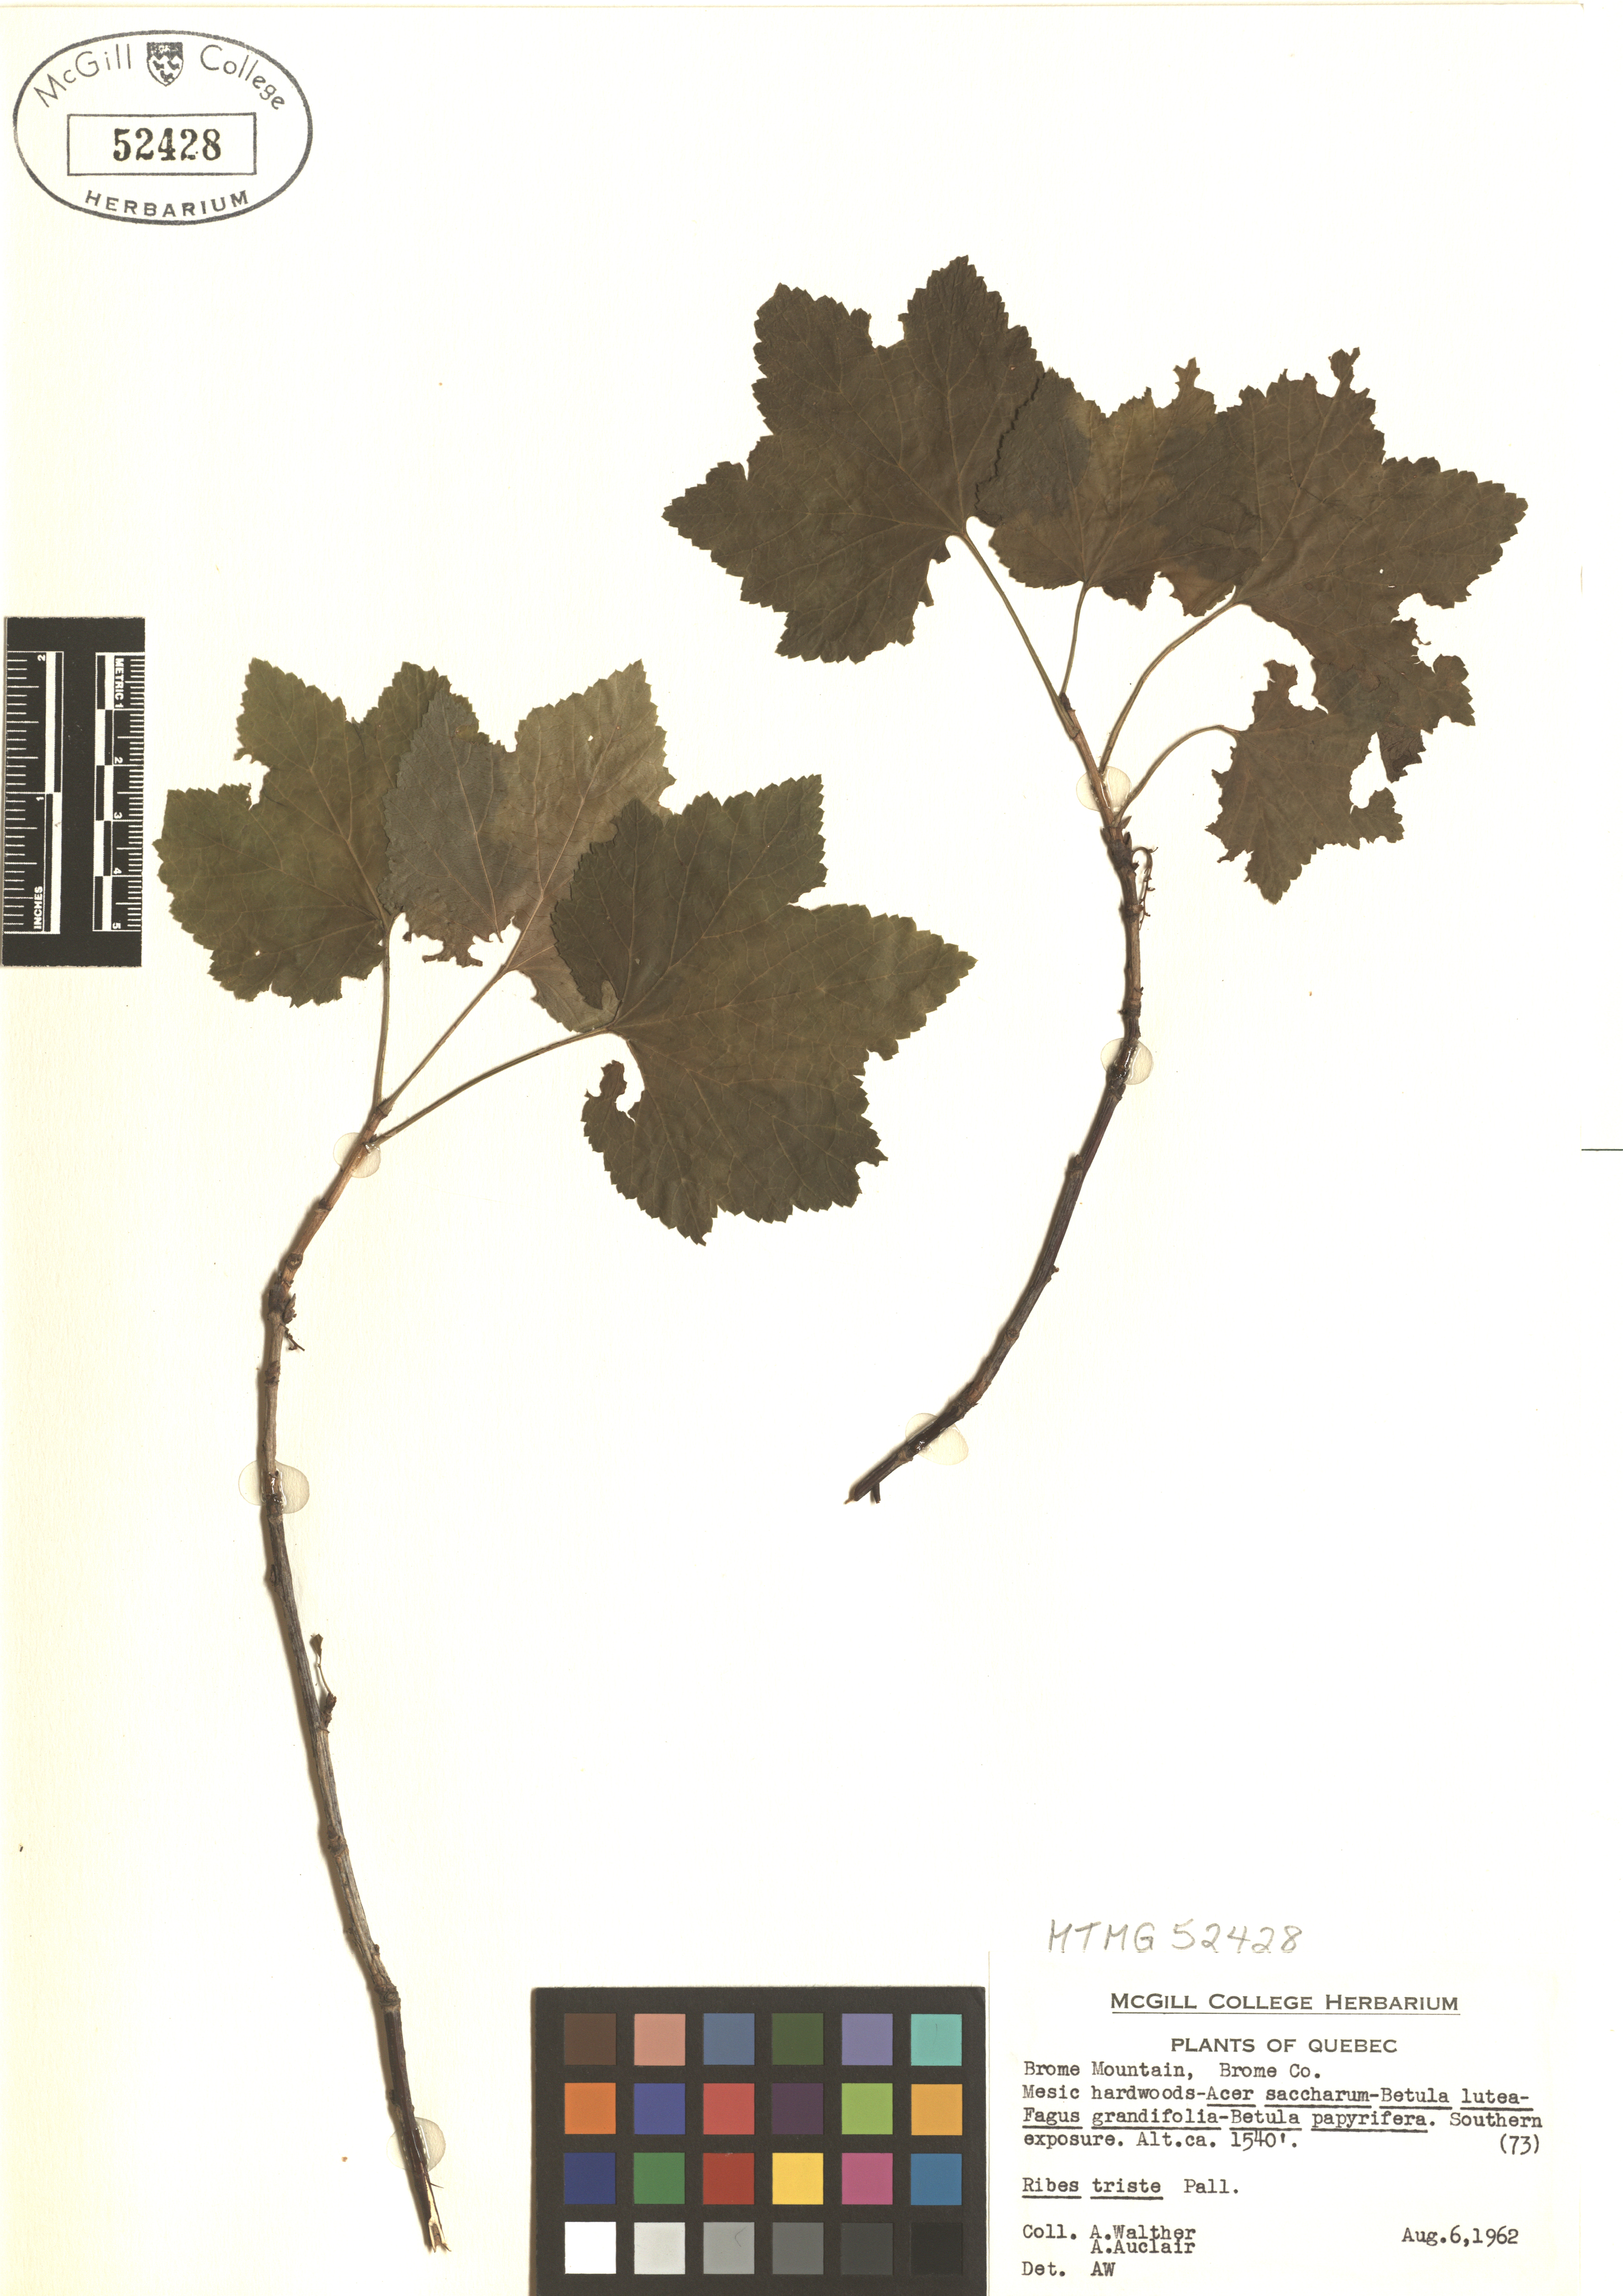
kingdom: Plantae
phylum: Tracheophyta
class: Magnoliopsida
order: Saxifragales
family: Grossulariaceae
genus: Ribes
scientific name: Ribes triste
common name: Swamp red currant
